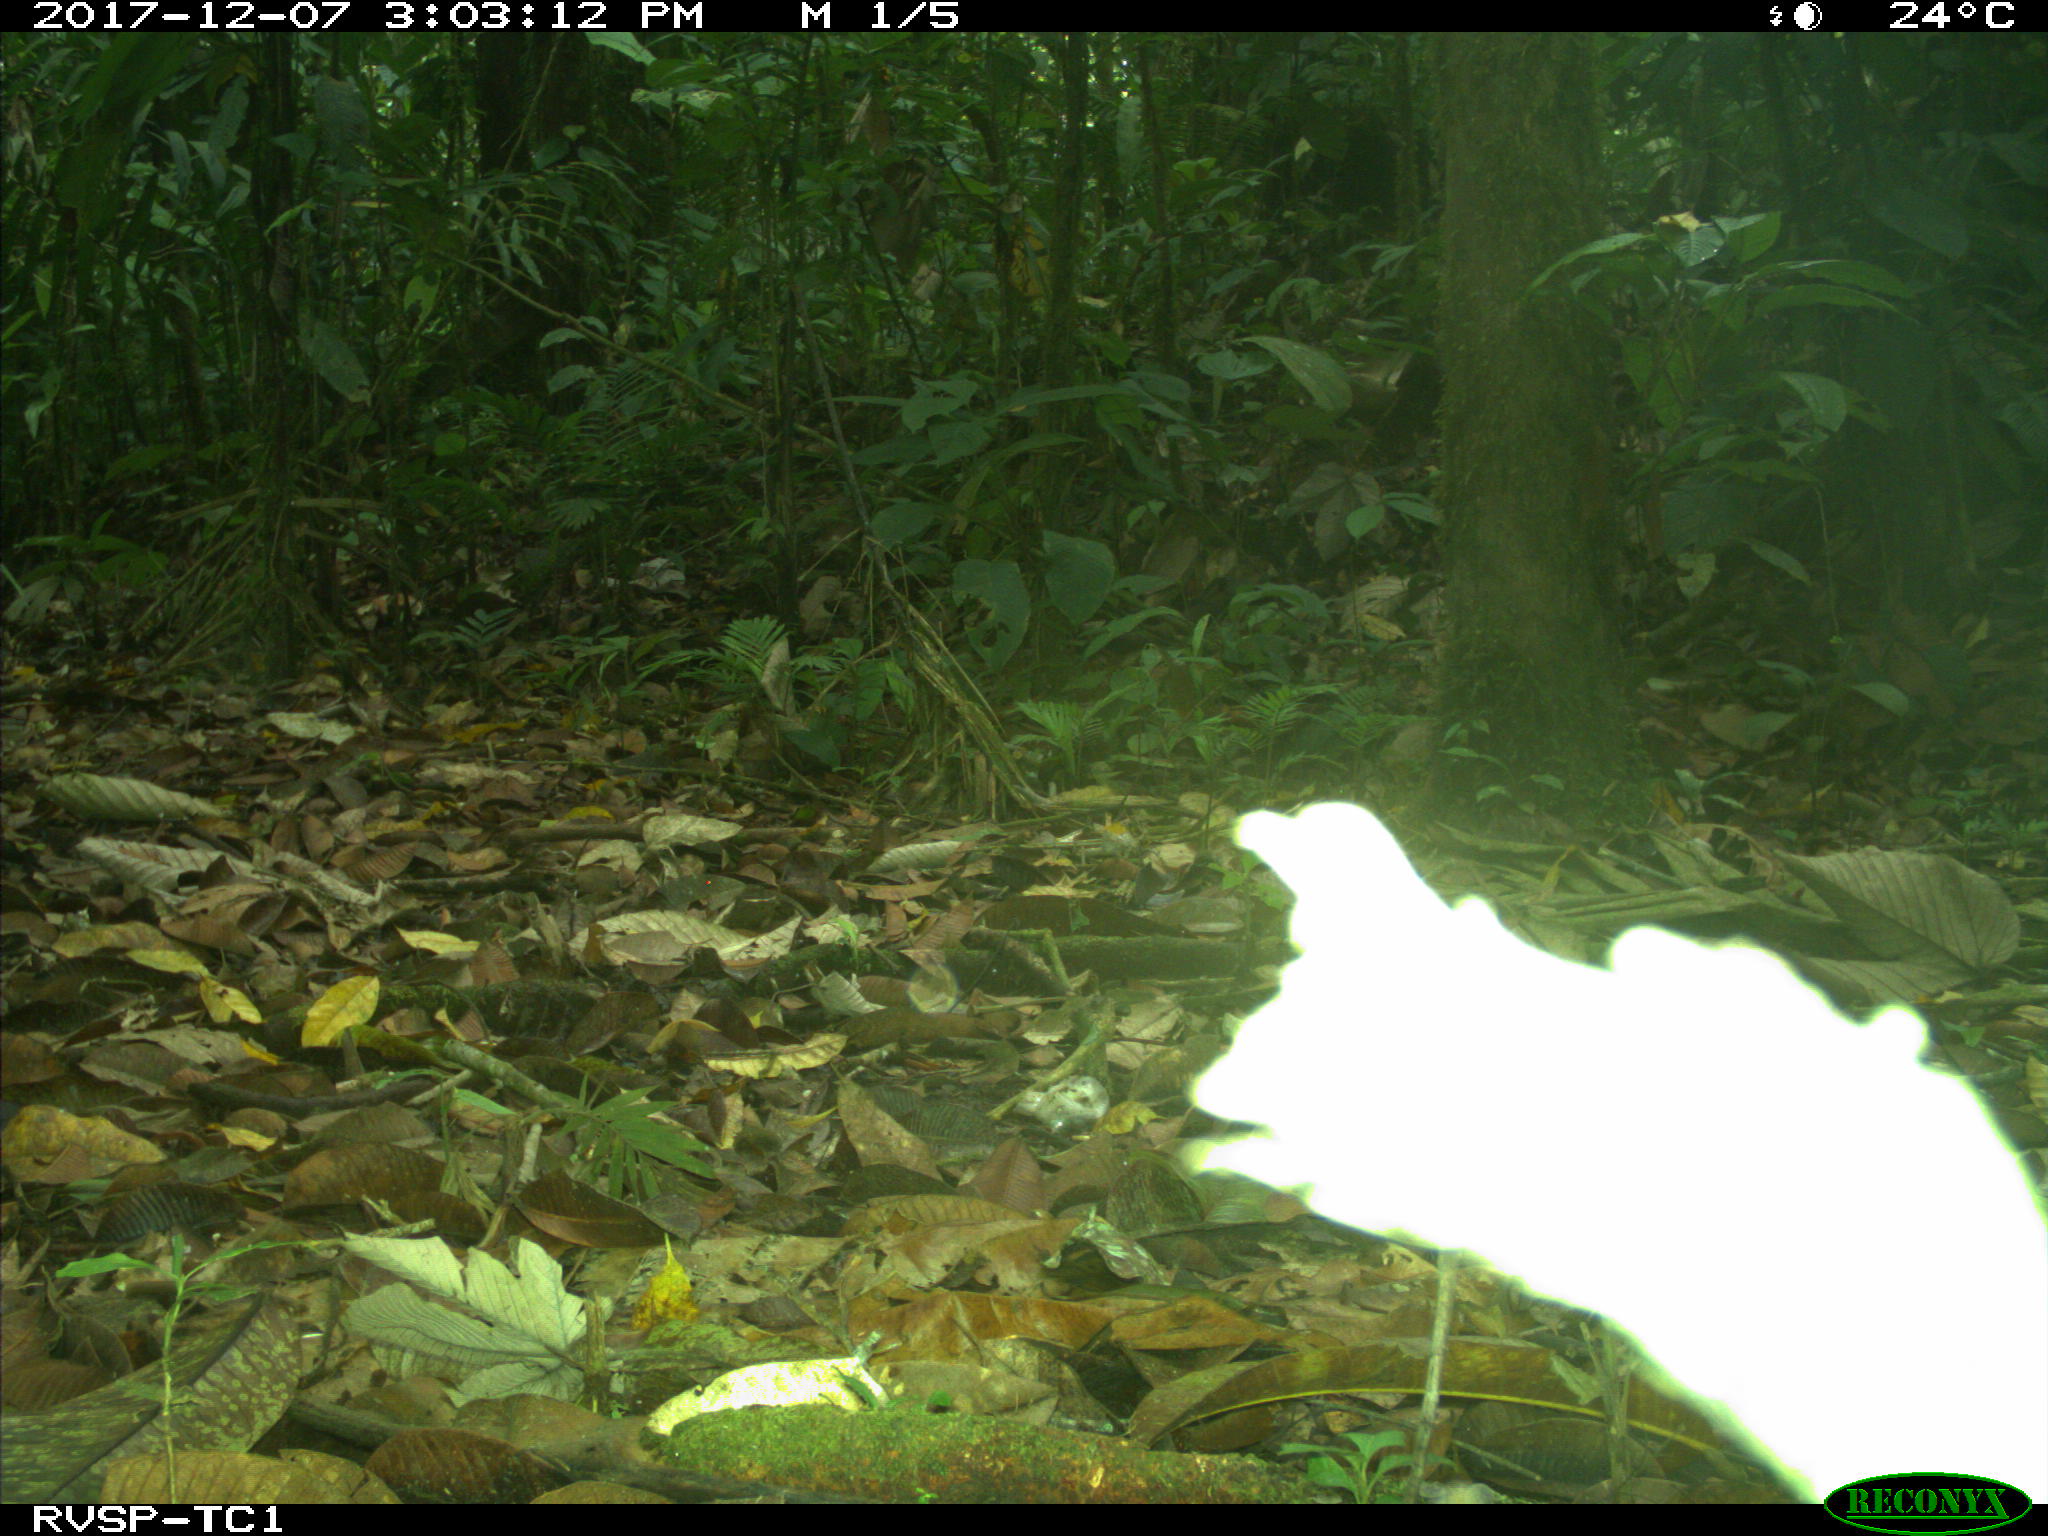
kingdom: Animalia
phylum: Chordata
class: Mammalia
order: Rodentia
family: Dasyproctidae
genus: Dasyprocta
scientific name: Dasyprocta punctata
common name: Central american agouti
